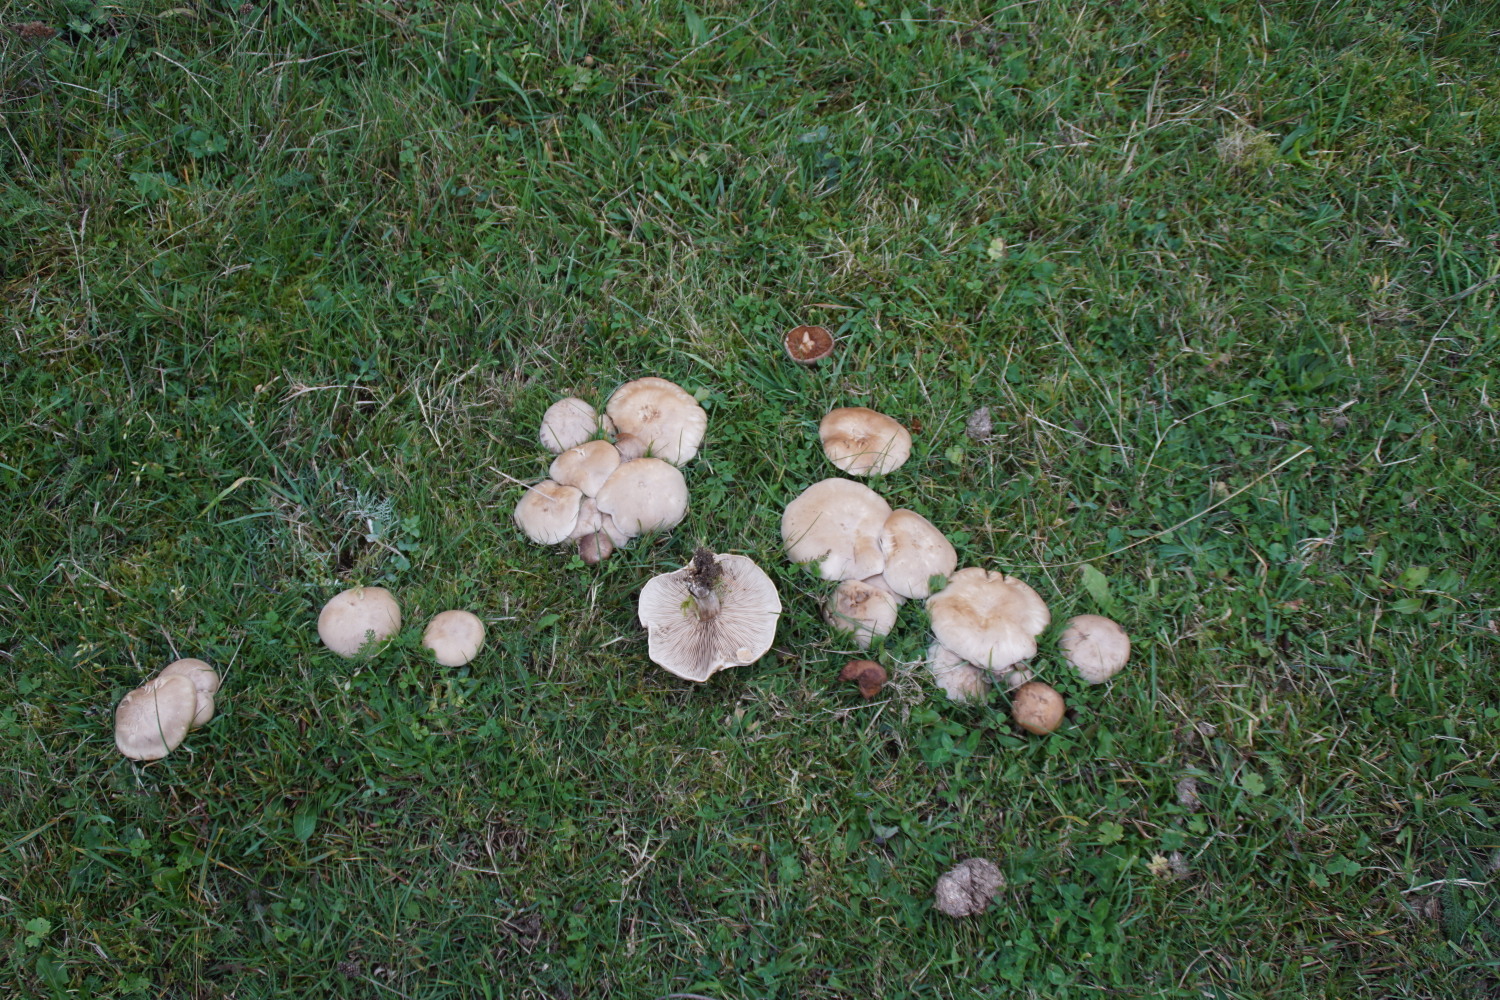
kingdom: Fungi
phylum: Basidiomycota
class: Agaricomycetes
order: Agaricales
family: Tricholomataceae
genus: Lepista
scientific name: Lepista panaeolus
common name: marmoreret hekseringshat
